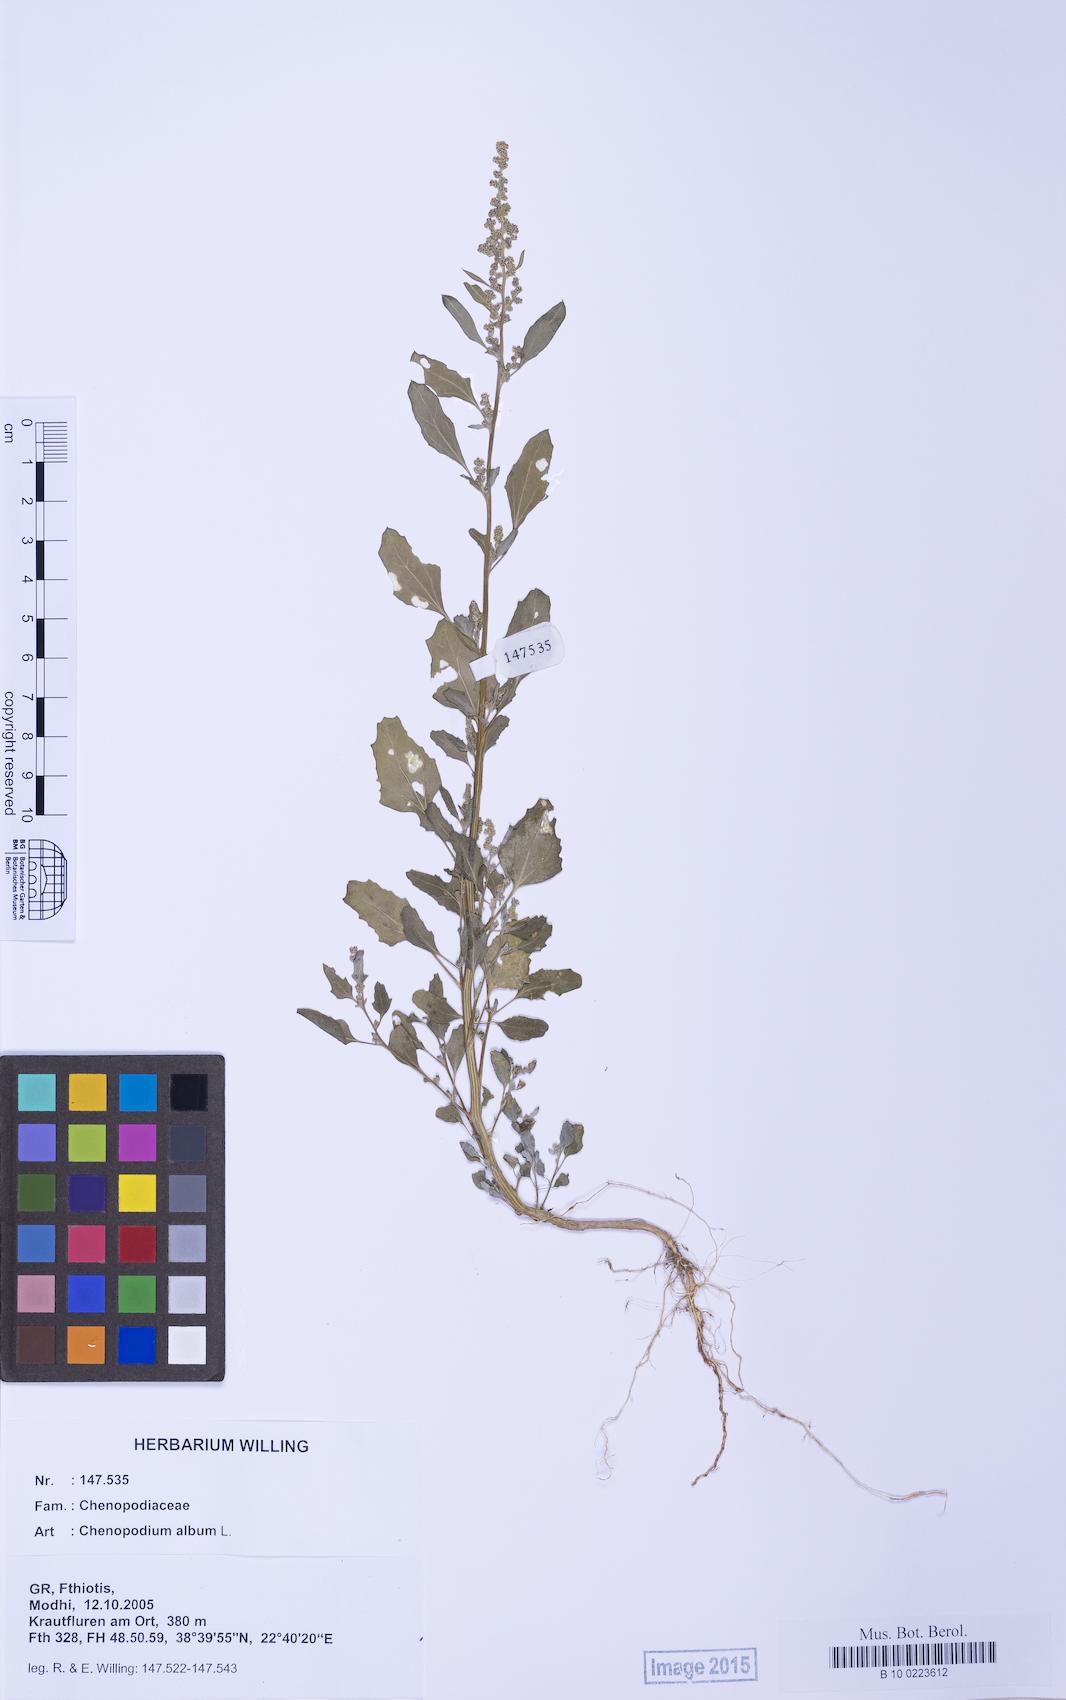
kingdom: Plantae
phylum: Tracheophyta
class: Magnoliopsida
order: Caryophyllales
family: Amaranthaceae
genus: Chenopodium
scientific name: Chenopodium album
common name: Fat-hen
